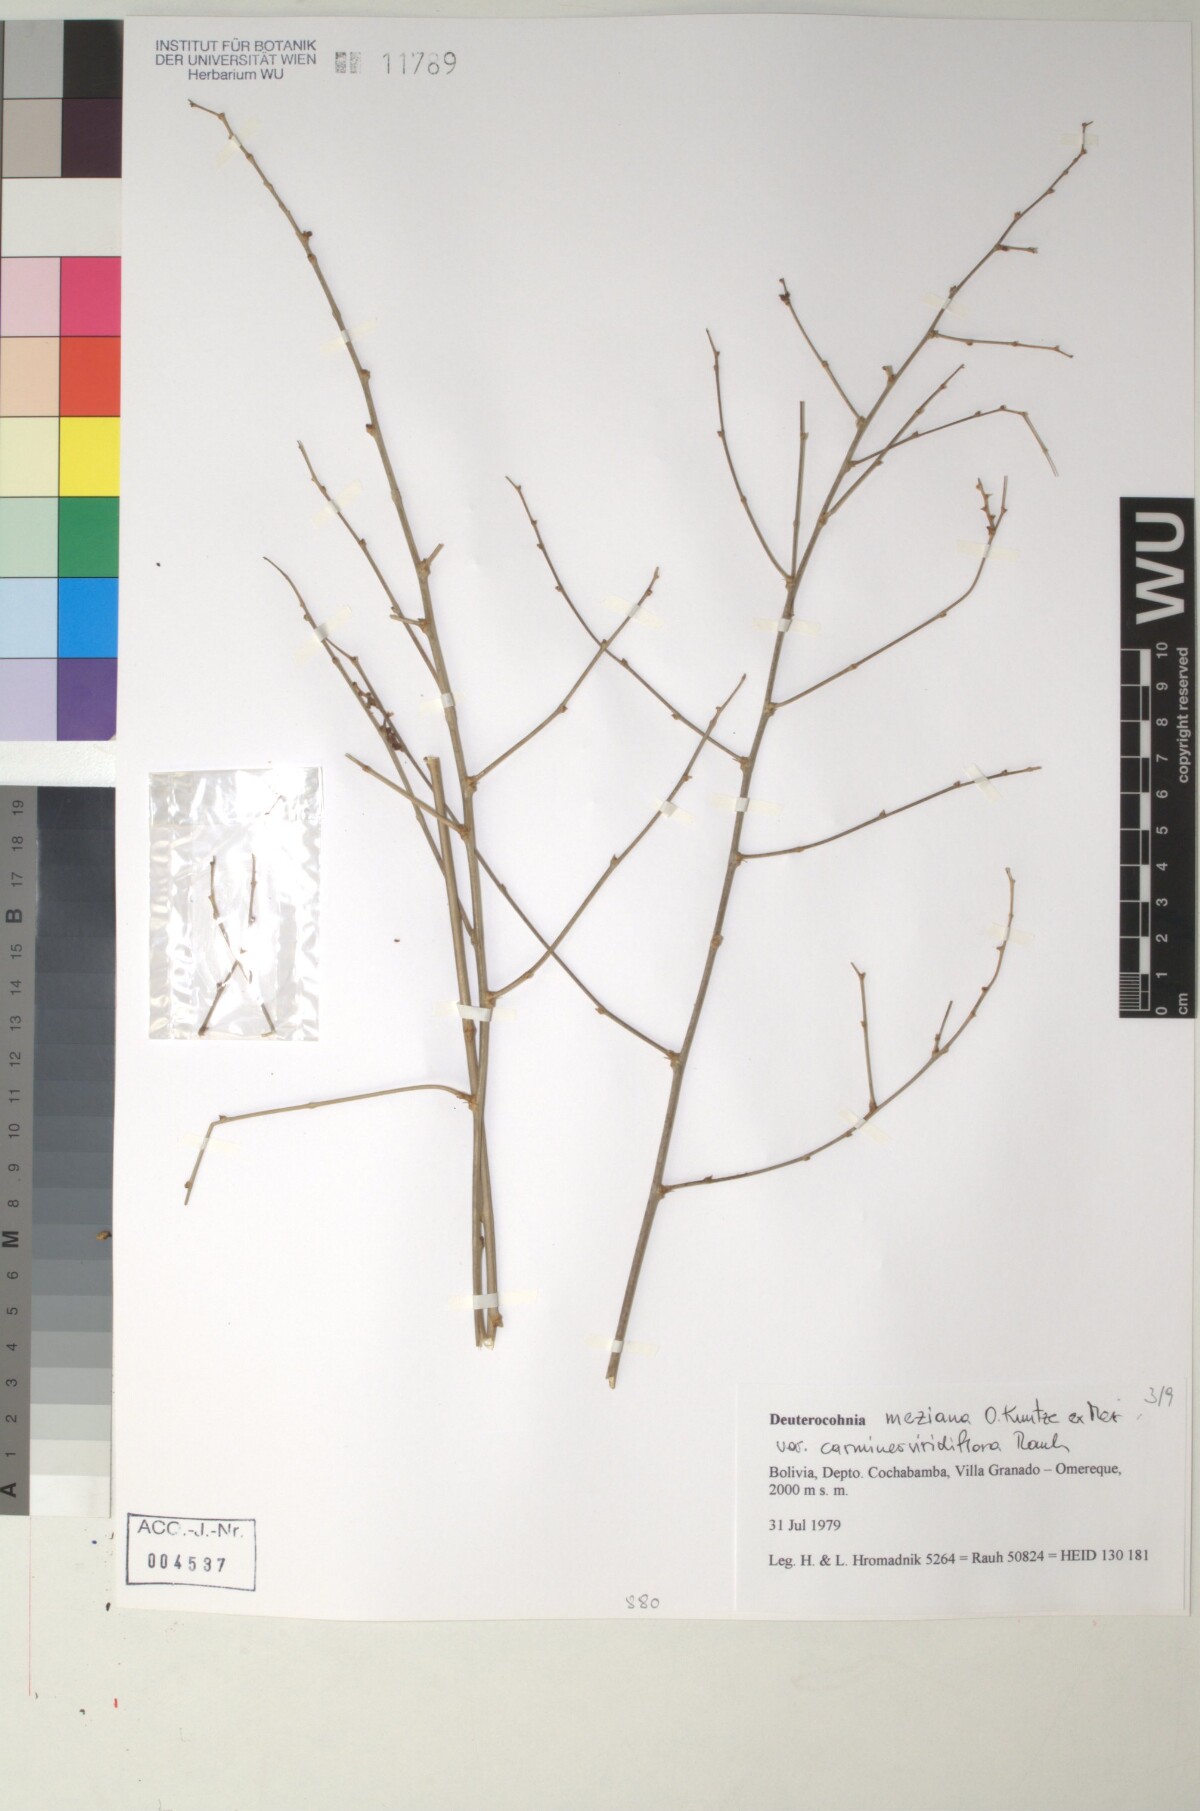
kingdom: Plantae
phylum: Tracheophyta
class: Liliopsida
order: Poales
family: Bromeliaceae
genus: Deuterocohnia
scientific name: Deuterocohnia meziana
